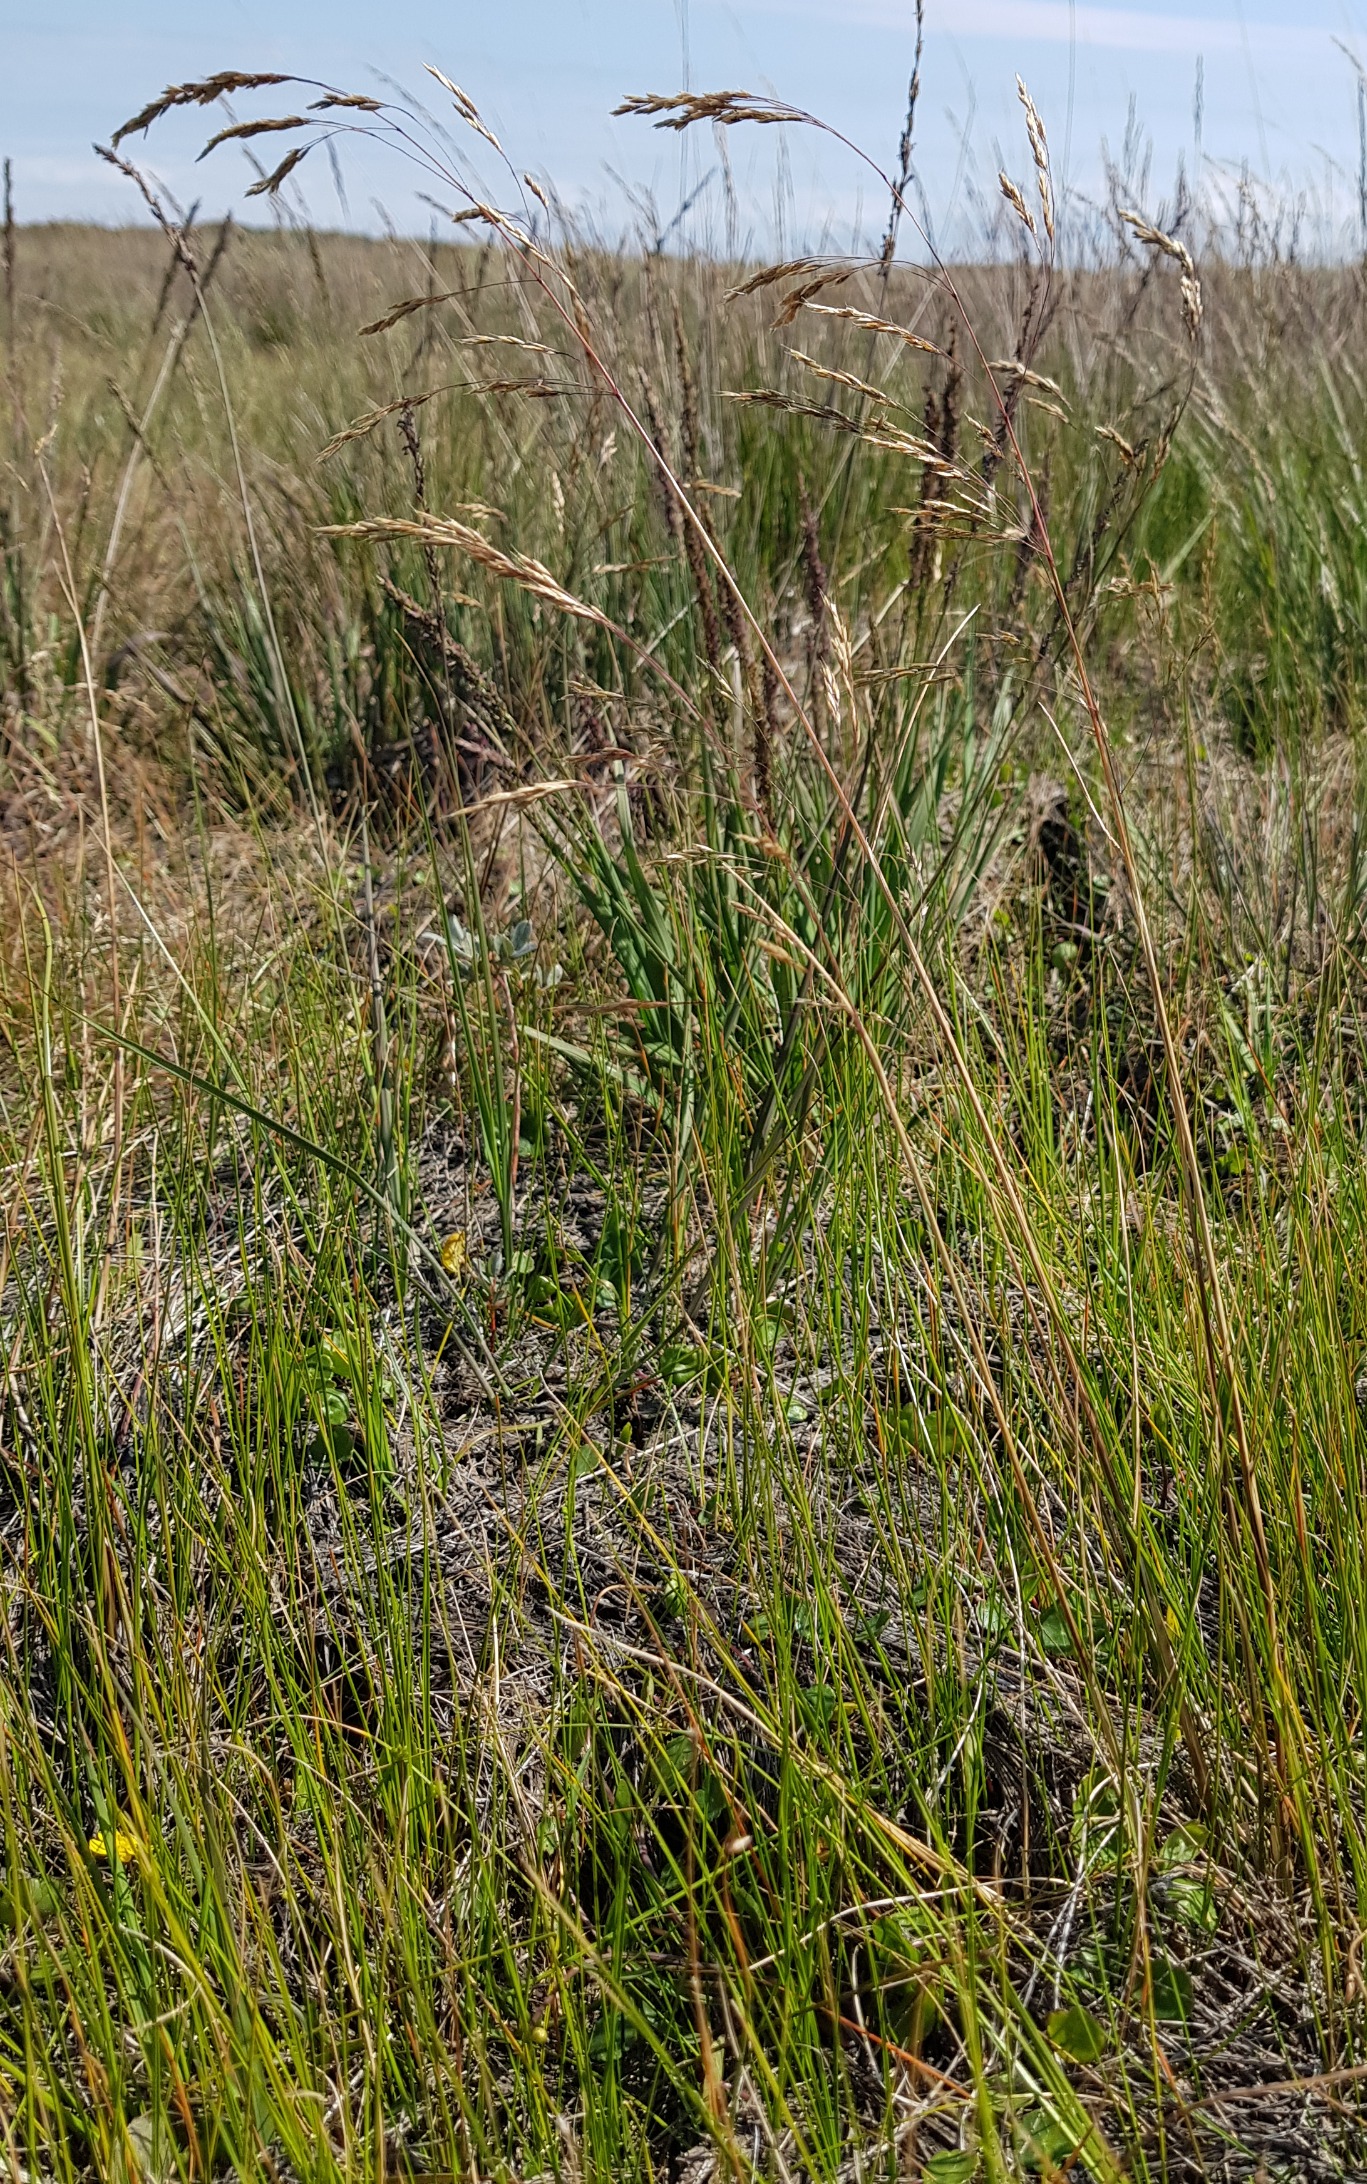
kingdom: Plantae
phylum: Tracheophyta
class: Liliopsida
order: Poales
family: Poaceae
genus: Deschampsia
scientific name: Deschampsia setacea
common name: Fin bunke
